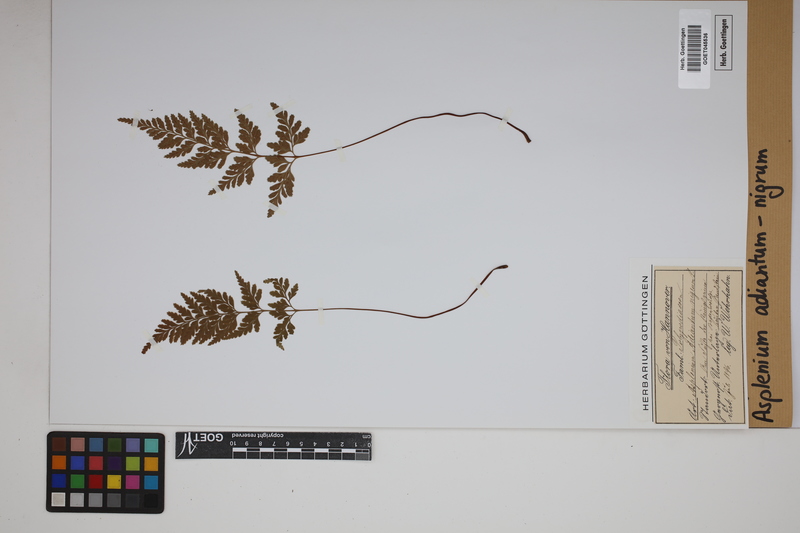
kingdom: Plantae
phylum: Tracheophyta
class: Polypodiopsida
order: Polypodiales
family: Aspleniaceae
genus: Asplenium
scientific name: Asplenium adiantum-nigrum
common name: Black spleenwort
